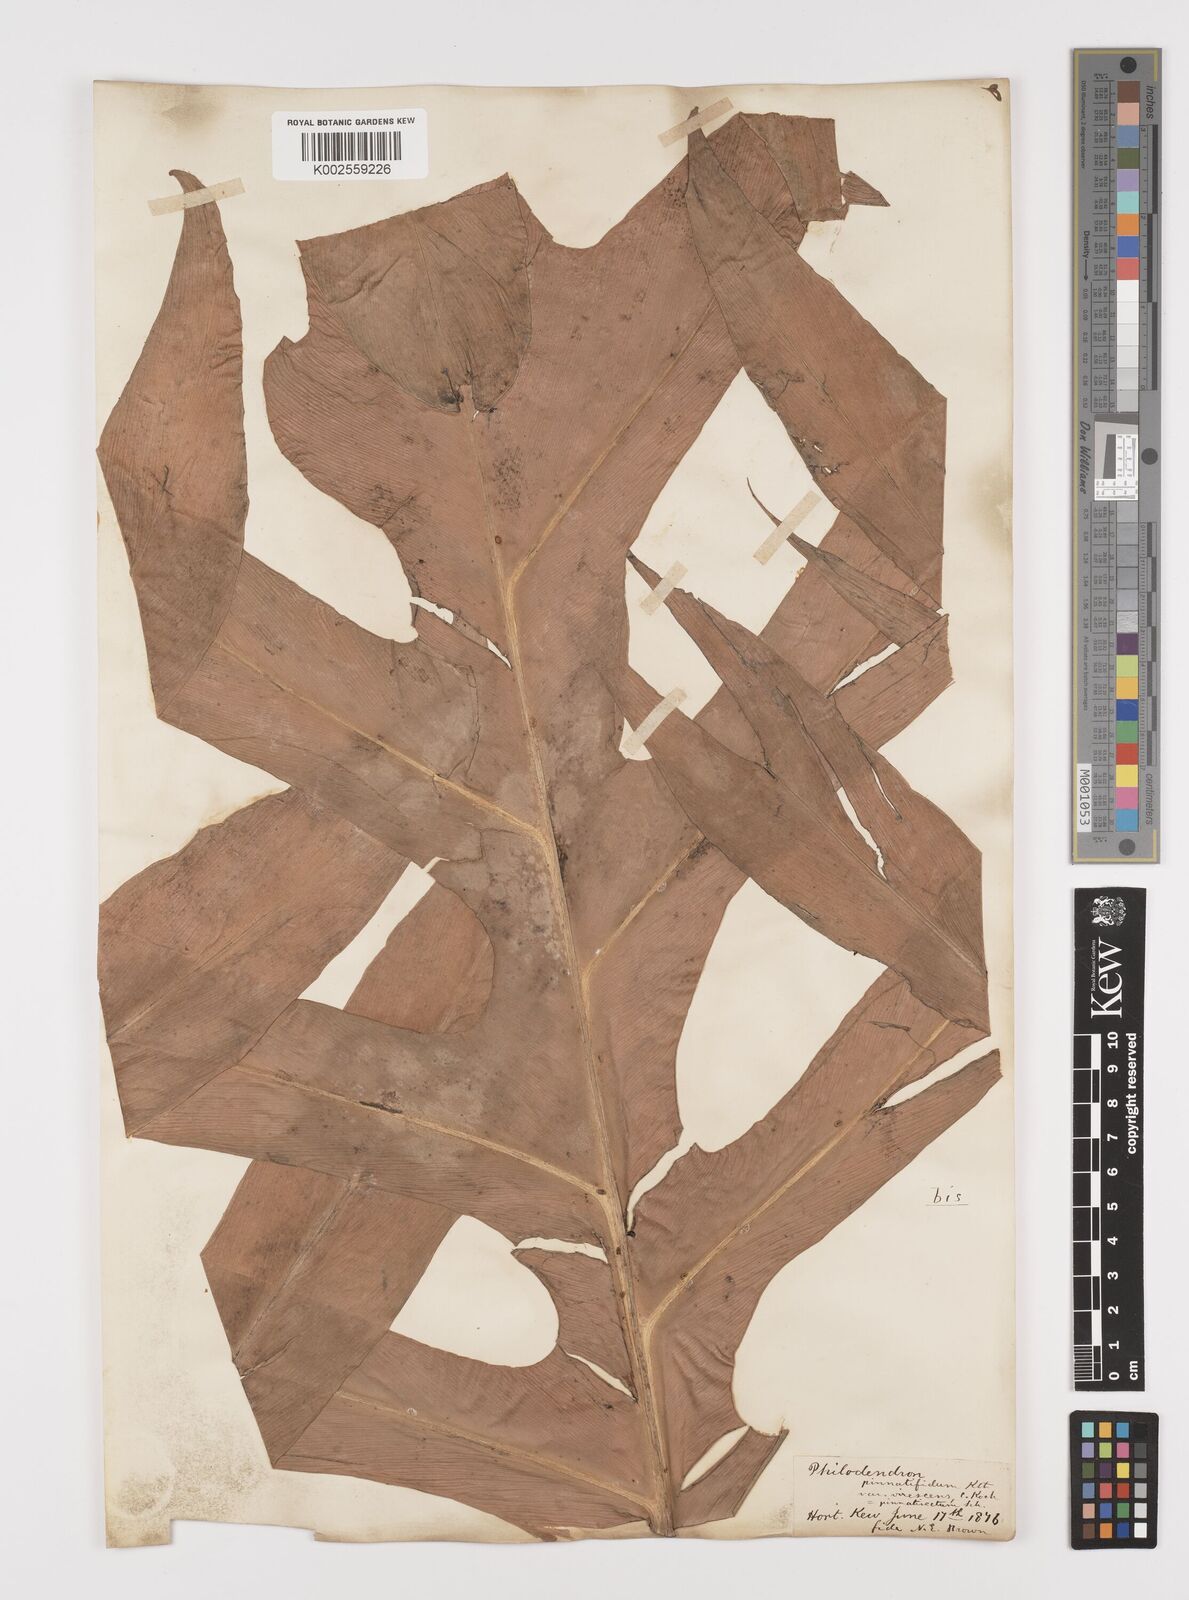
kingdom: Plantae
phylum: Tracheophyta
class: Liliopsida
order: Alismatales
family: Araceae
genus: Philodendron
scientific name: Philodendron pinnatifidum
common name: Comb-leaf philodendron
